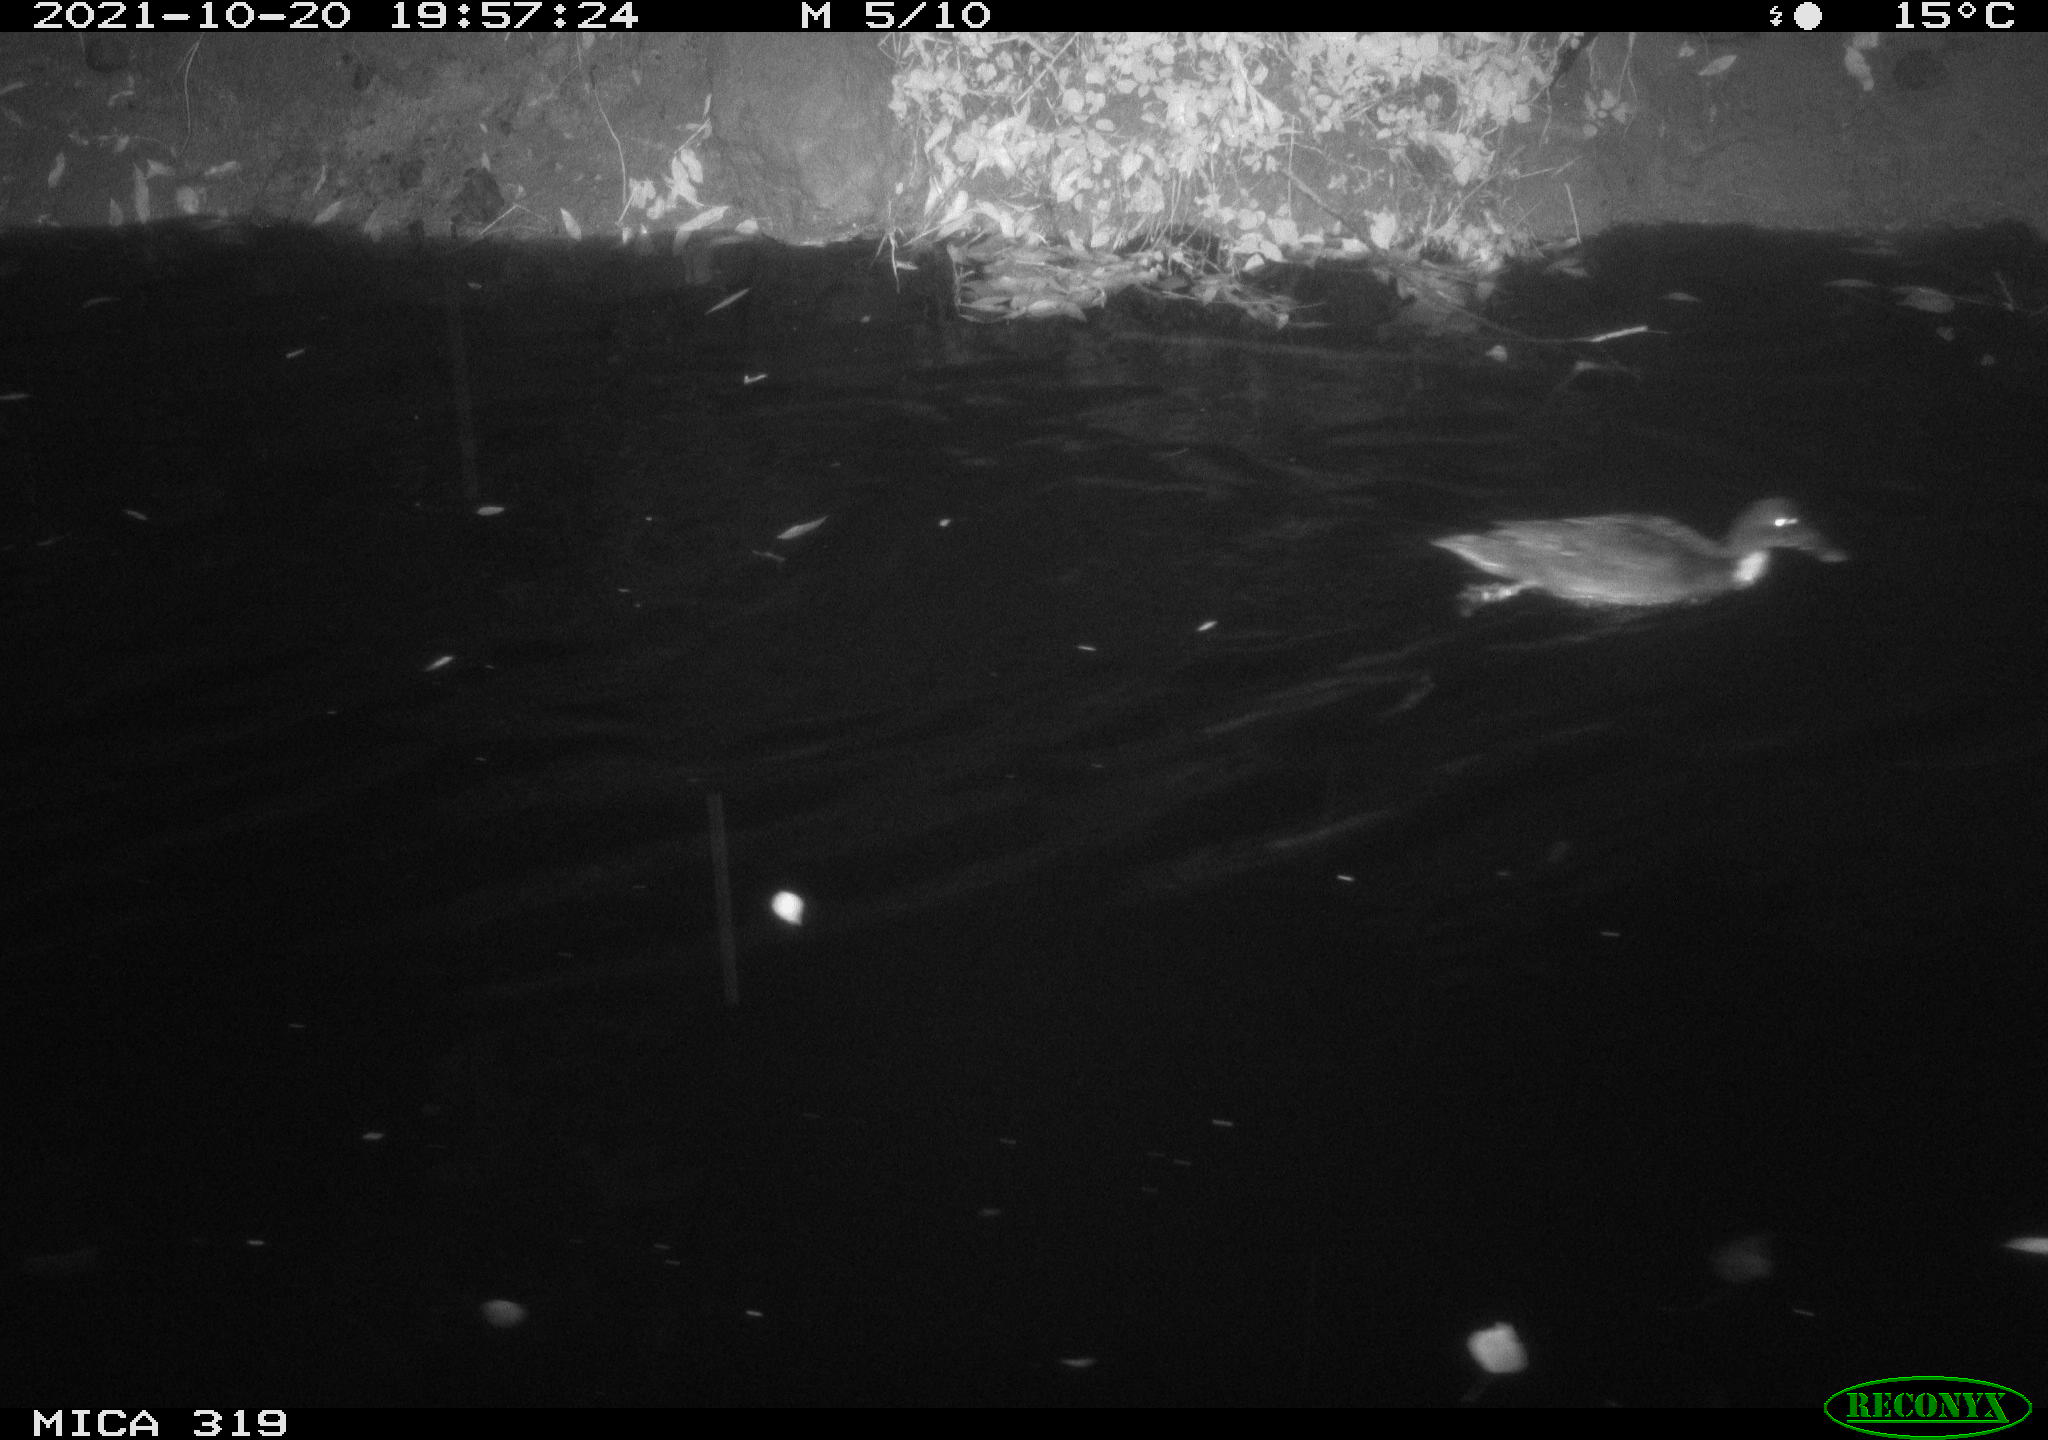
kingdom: Animalia
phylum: Chordata
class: Aves
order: Anseriformes
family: Anatidae
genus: Anas
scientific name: Anas platyrhynchos
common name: Mallard
